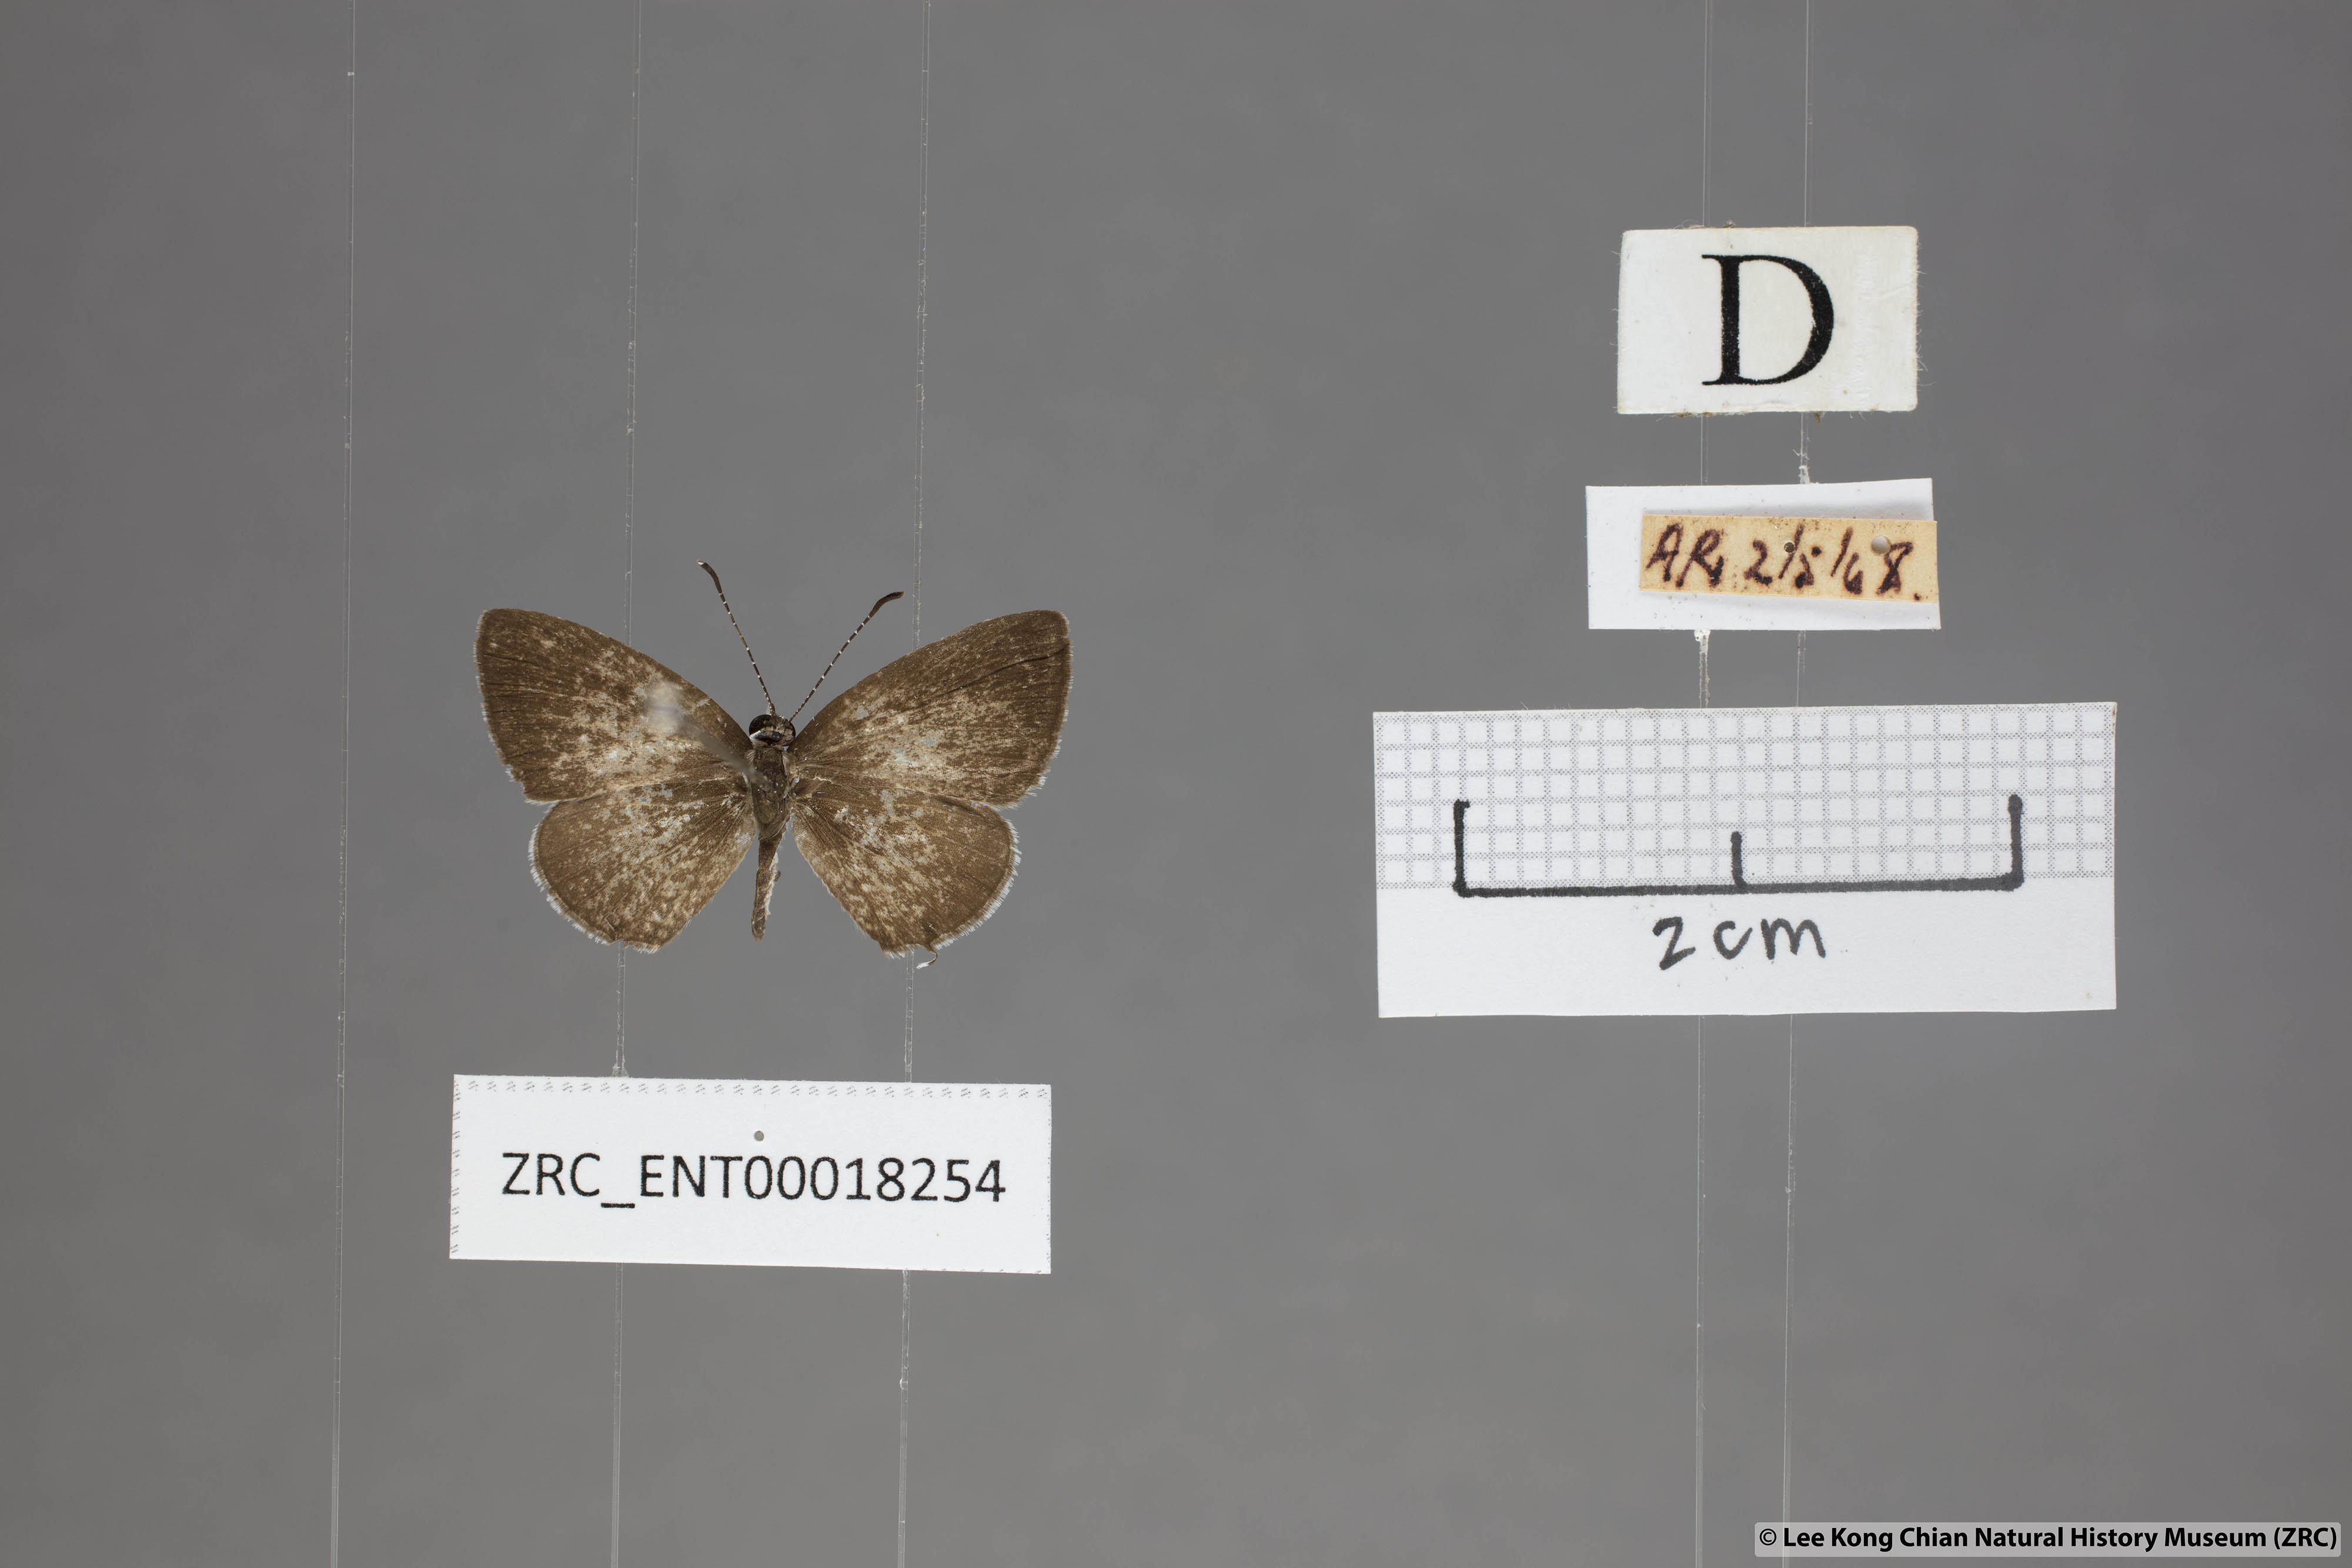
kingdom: Animalia
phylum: Arthropoda
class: Insecta
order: Lepidoptera
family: Lycaenidae
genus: Megisba
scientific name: Megisba malaya
